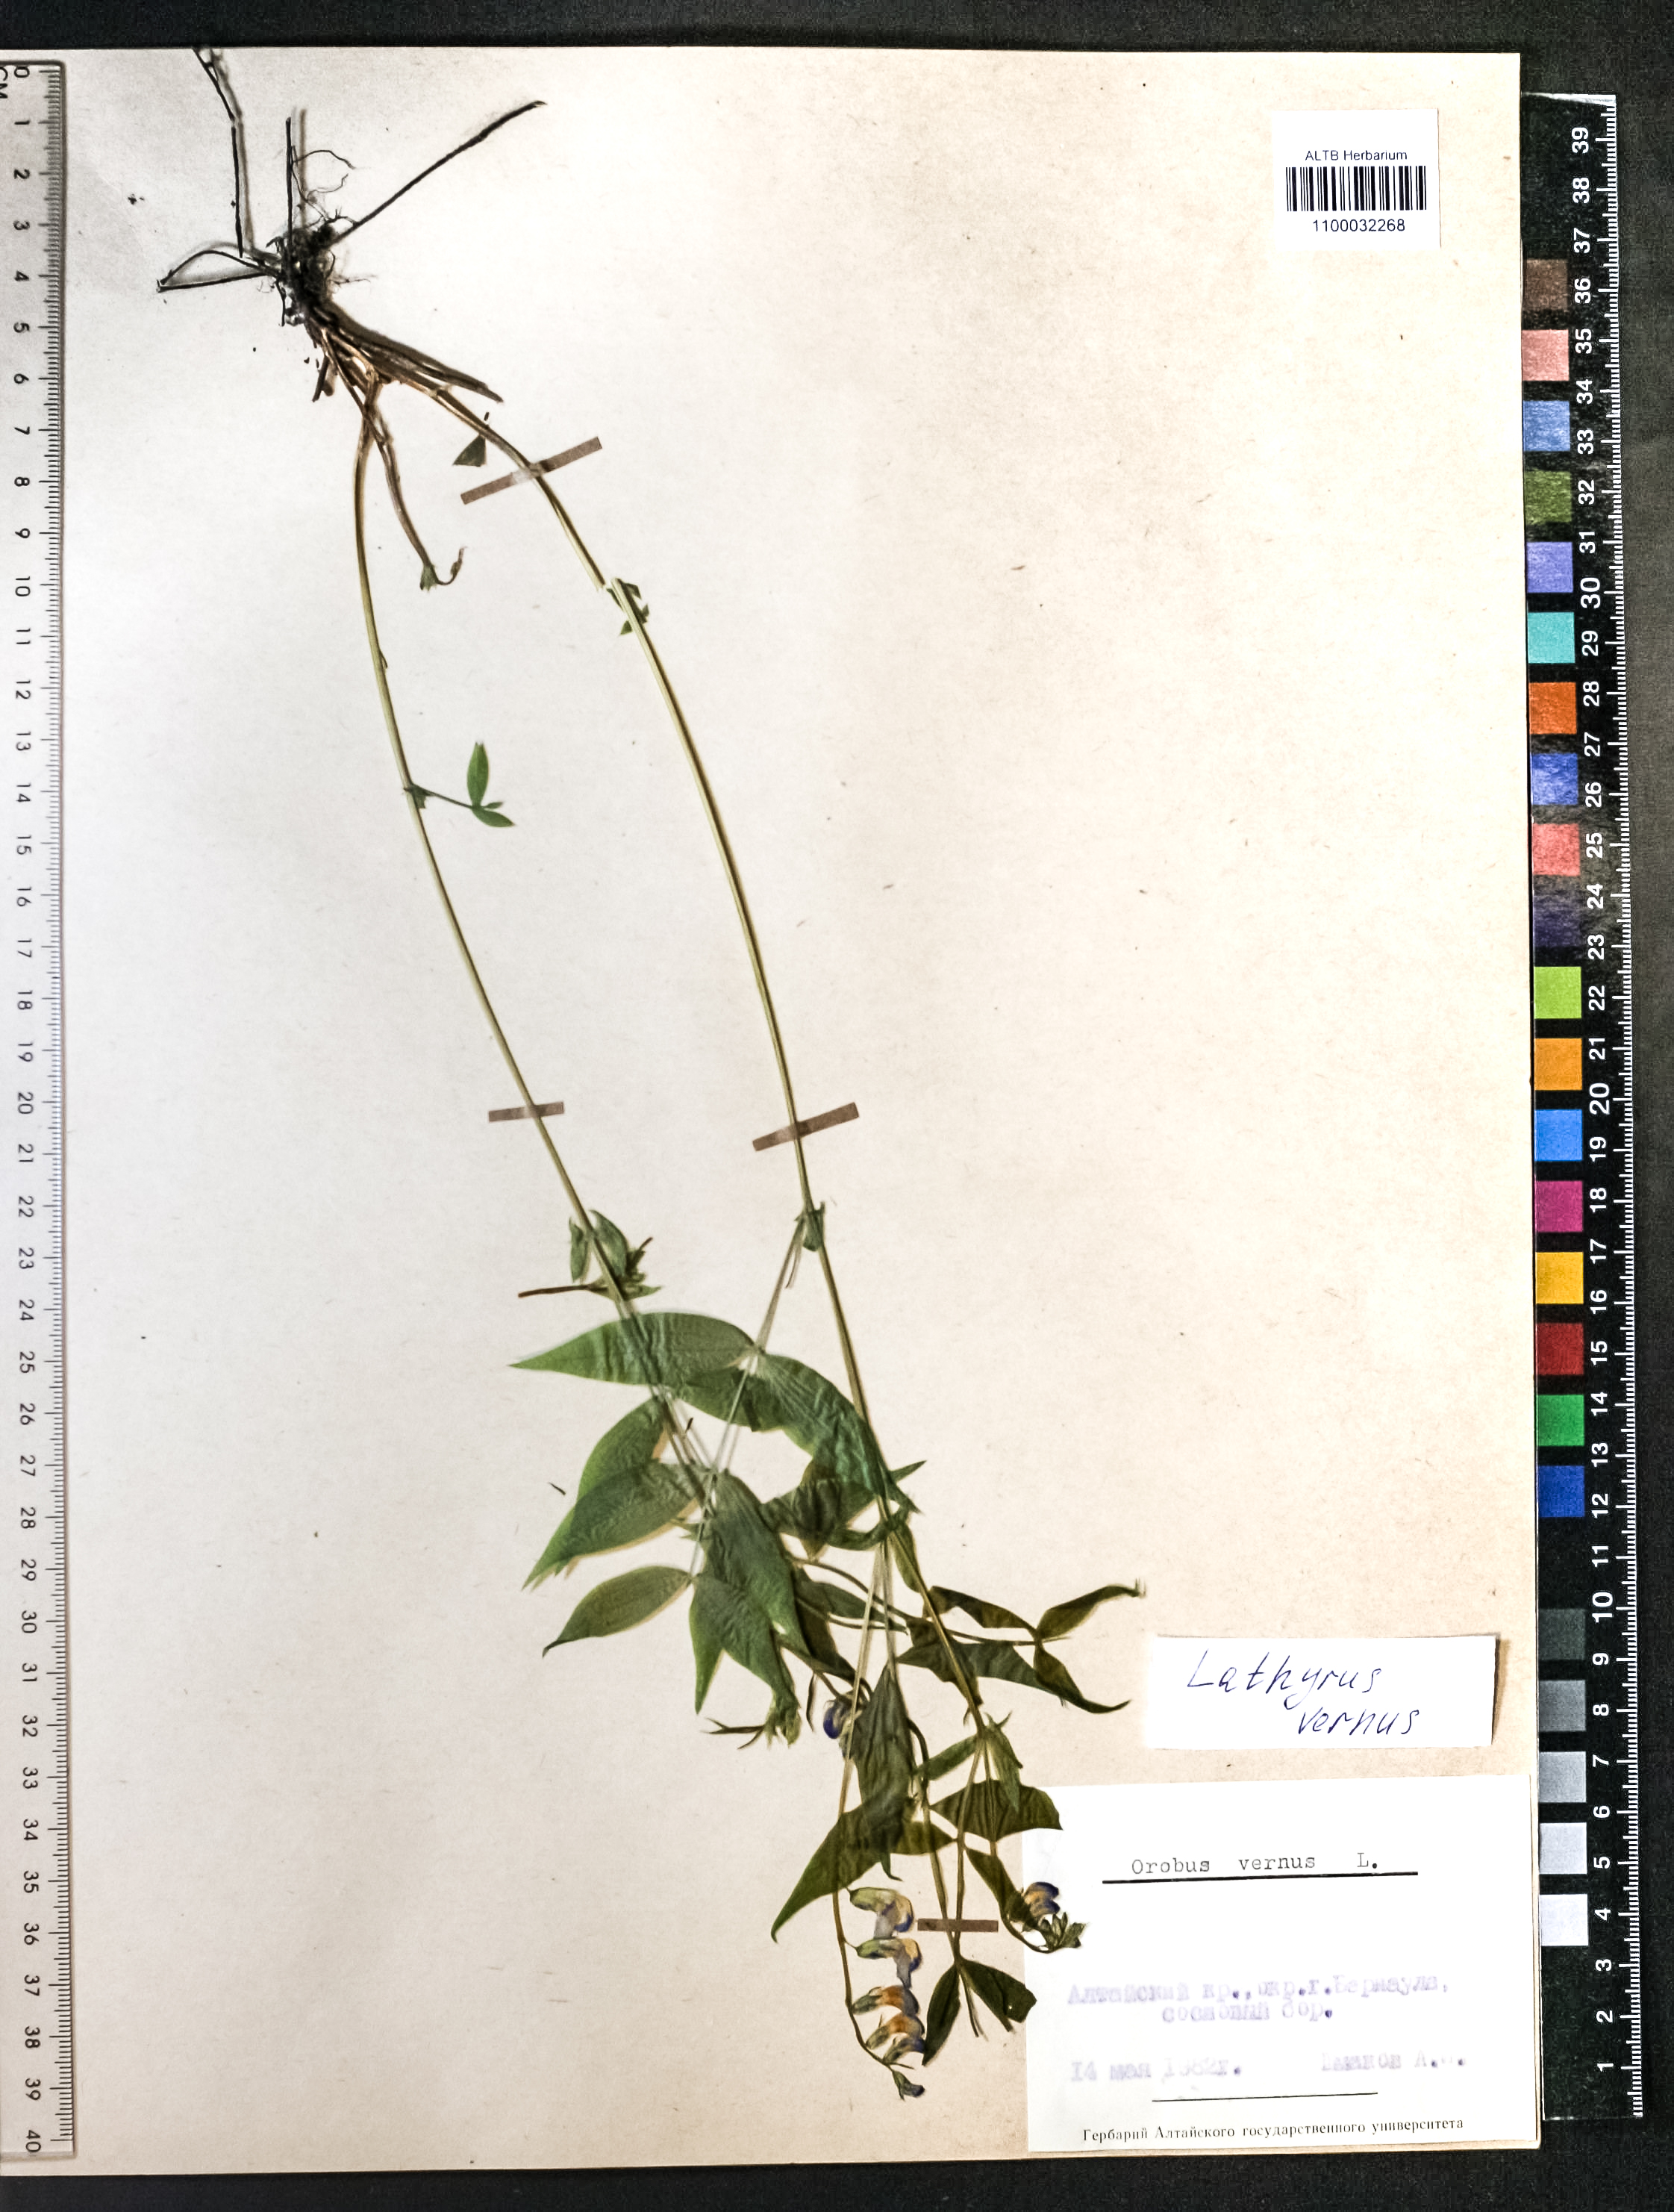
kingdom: Plantae
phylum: Tracheophyta
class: Magnoliopsida
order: Fabales
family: Fabaceae
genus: Lathyrus
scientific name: Lathyrus vernus
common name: Spring pea
